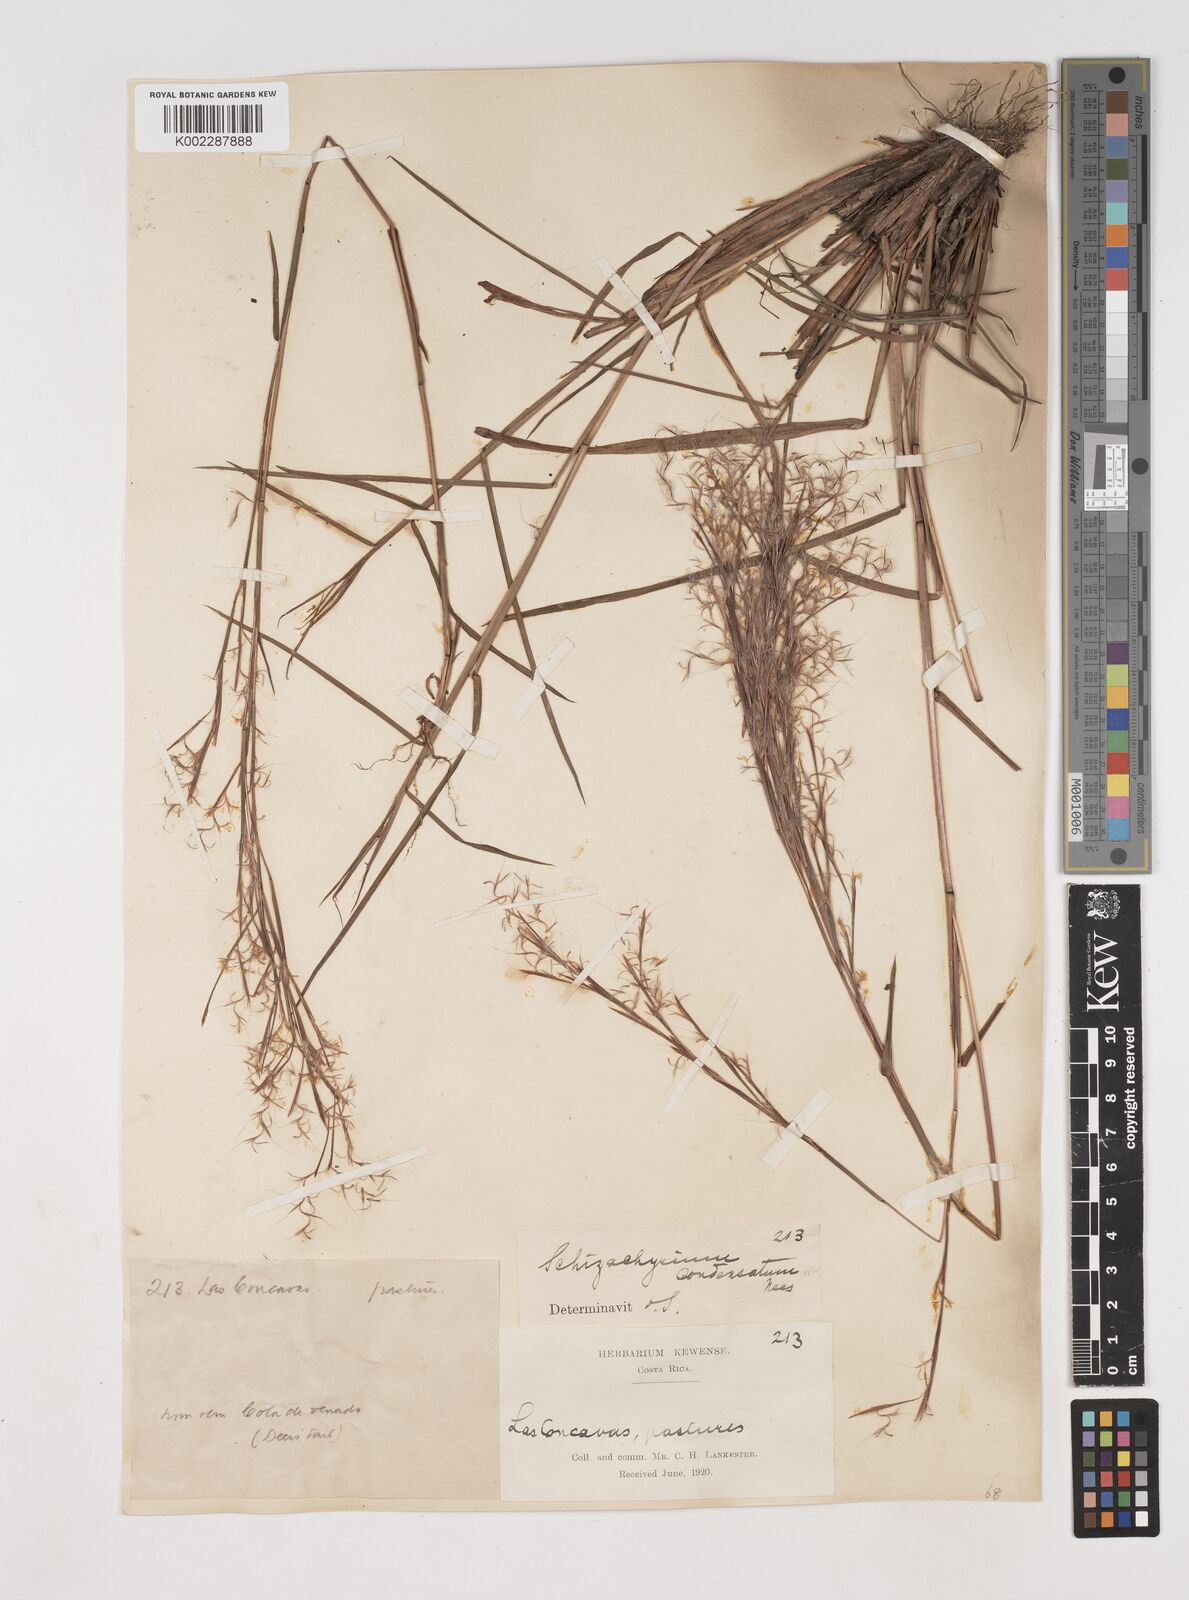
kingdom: Plantae
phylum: Tracheophyta
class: Liliopsida
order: Poales
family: Poaceae
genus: Schizachyrium
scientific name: Schizachyrium condensatum
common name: Bush beardgrass
